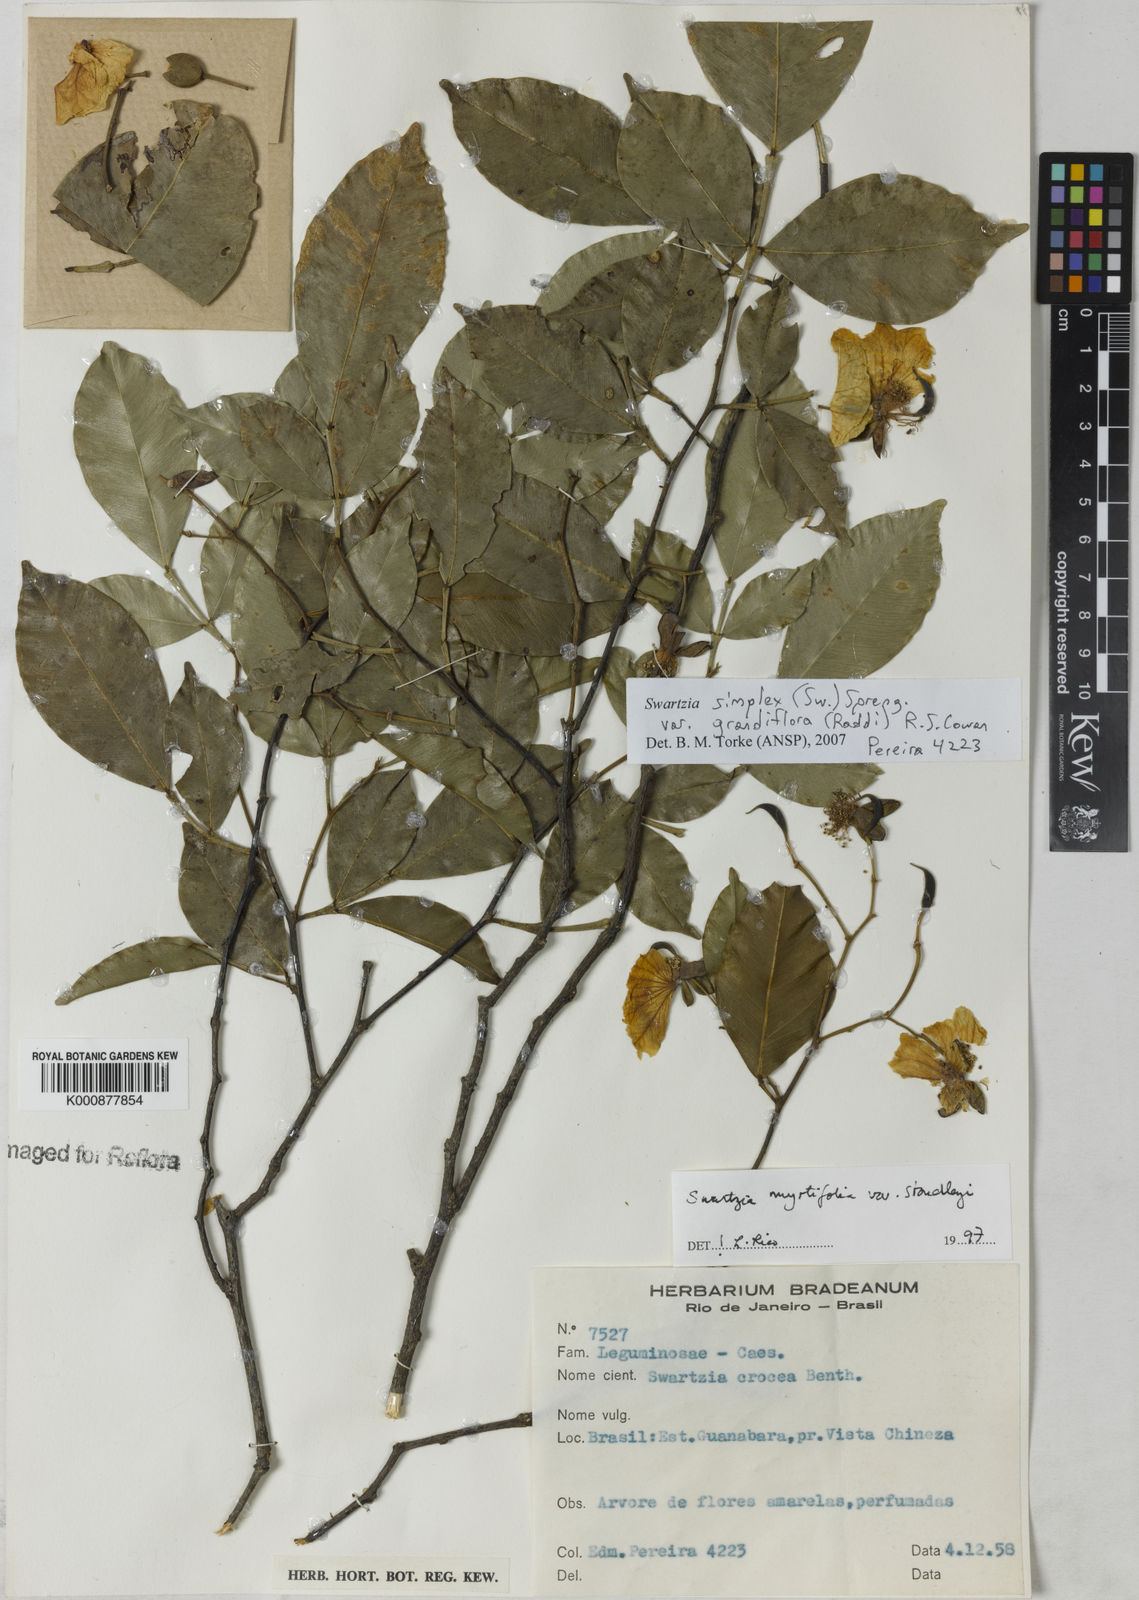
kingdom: Plantae
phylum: Tracheophyta
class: Magnoliopsida
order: Fabales
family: Fabaceae
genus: Swartzia
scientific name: Swartzia simplex
